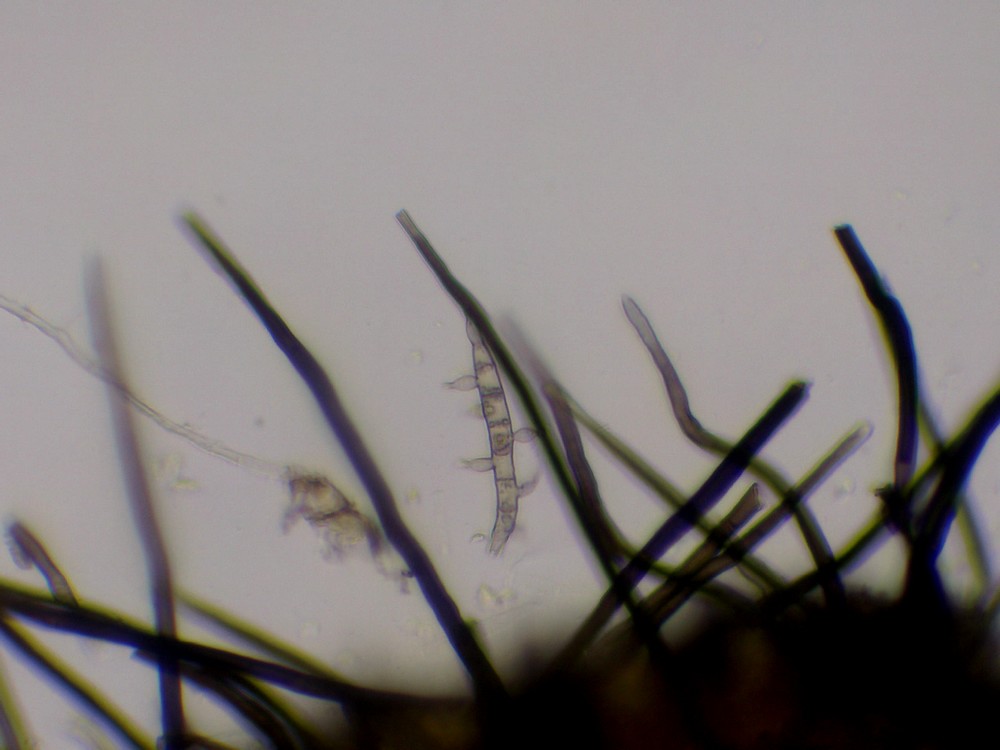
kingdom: Fungi
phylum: Ascomycota
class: Sordariomycetes
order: Sordariales
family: Lasiosphaeridaceae
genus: Lasiosphaeris
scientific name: Lasiosphaeris hirsuta
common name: sorthåret kernesvamp
